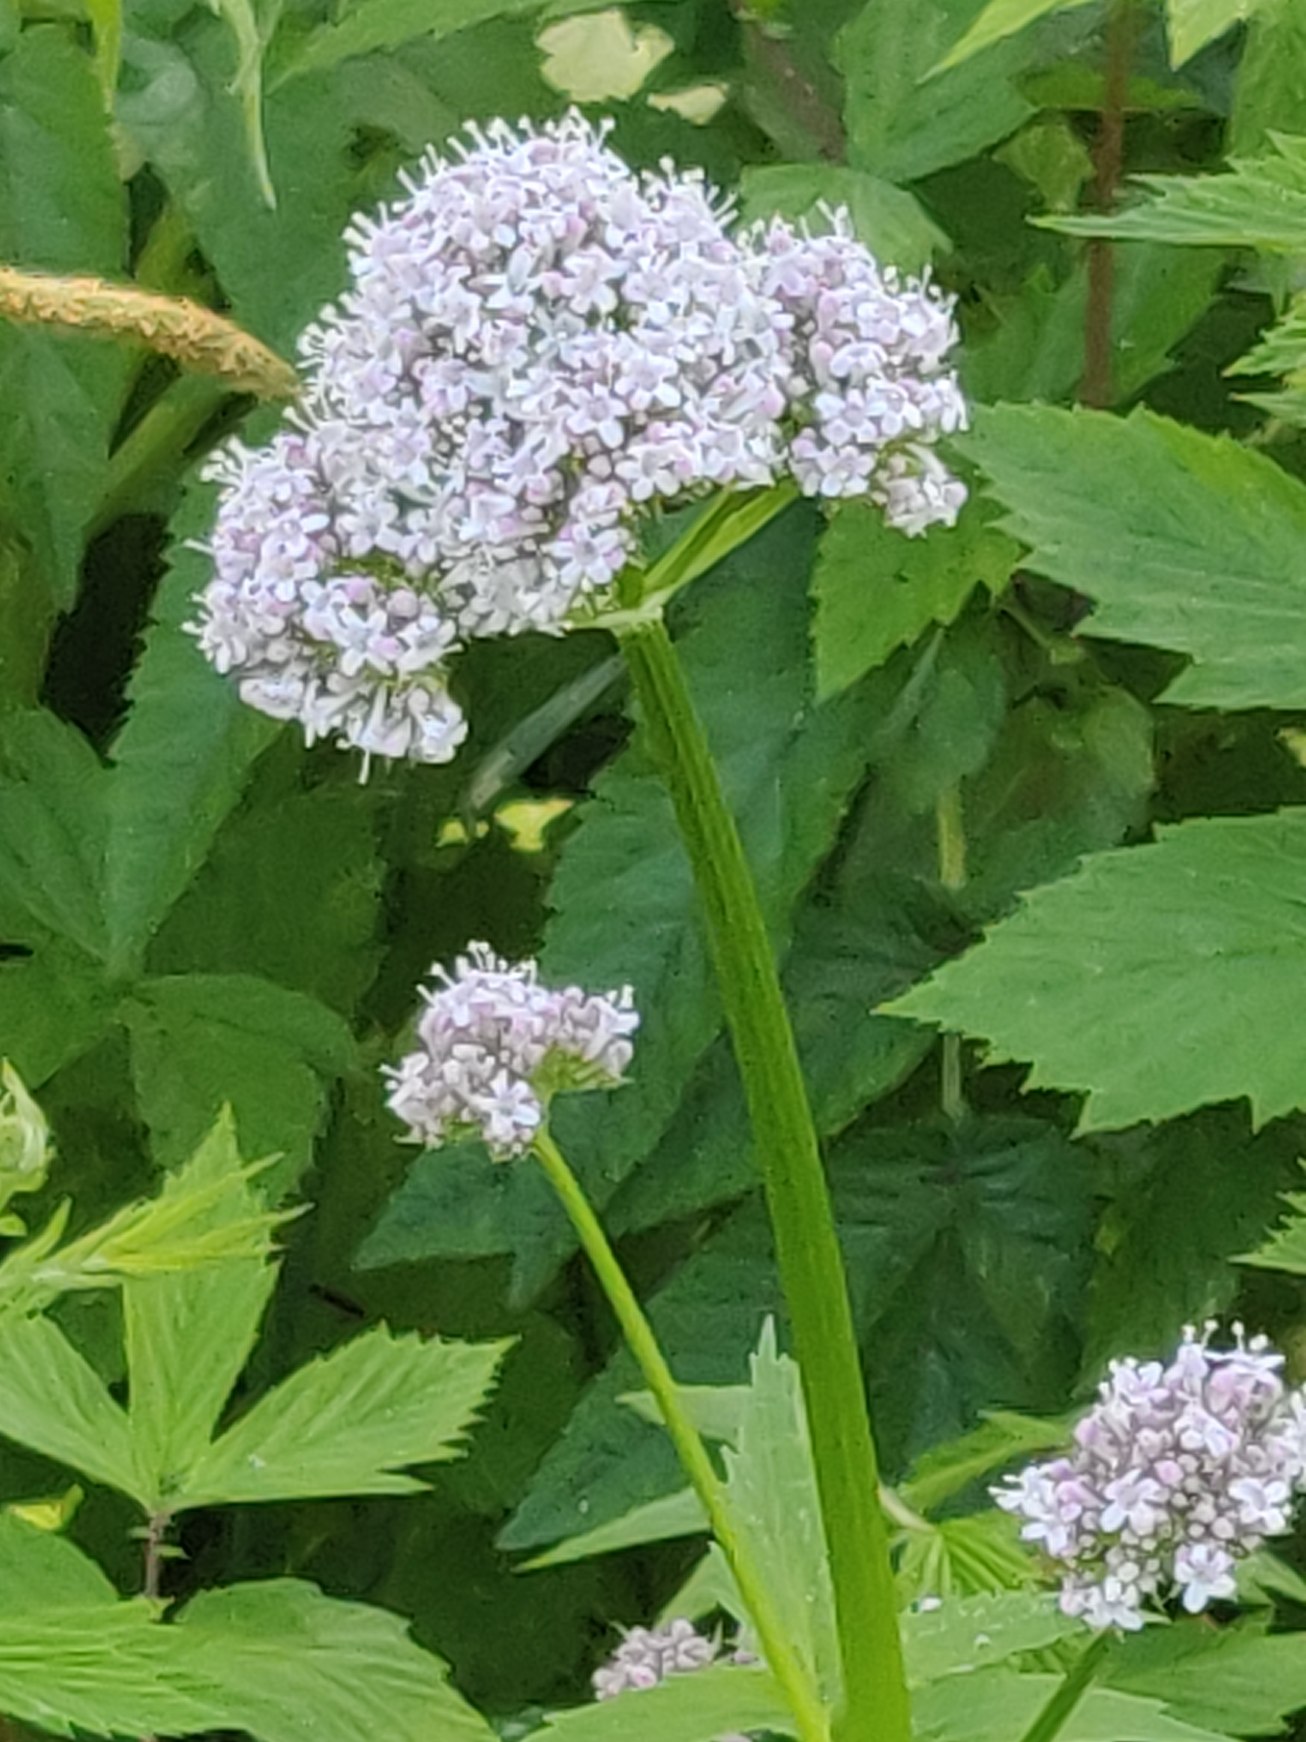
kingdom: Plantae
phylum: Tracheophyta
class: Magnoliopsida
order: Dipsacales
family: Caprifoliaceae
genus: Valeriana
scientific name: Valeriana sambucifolia
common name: Hyldebladet baldrian
